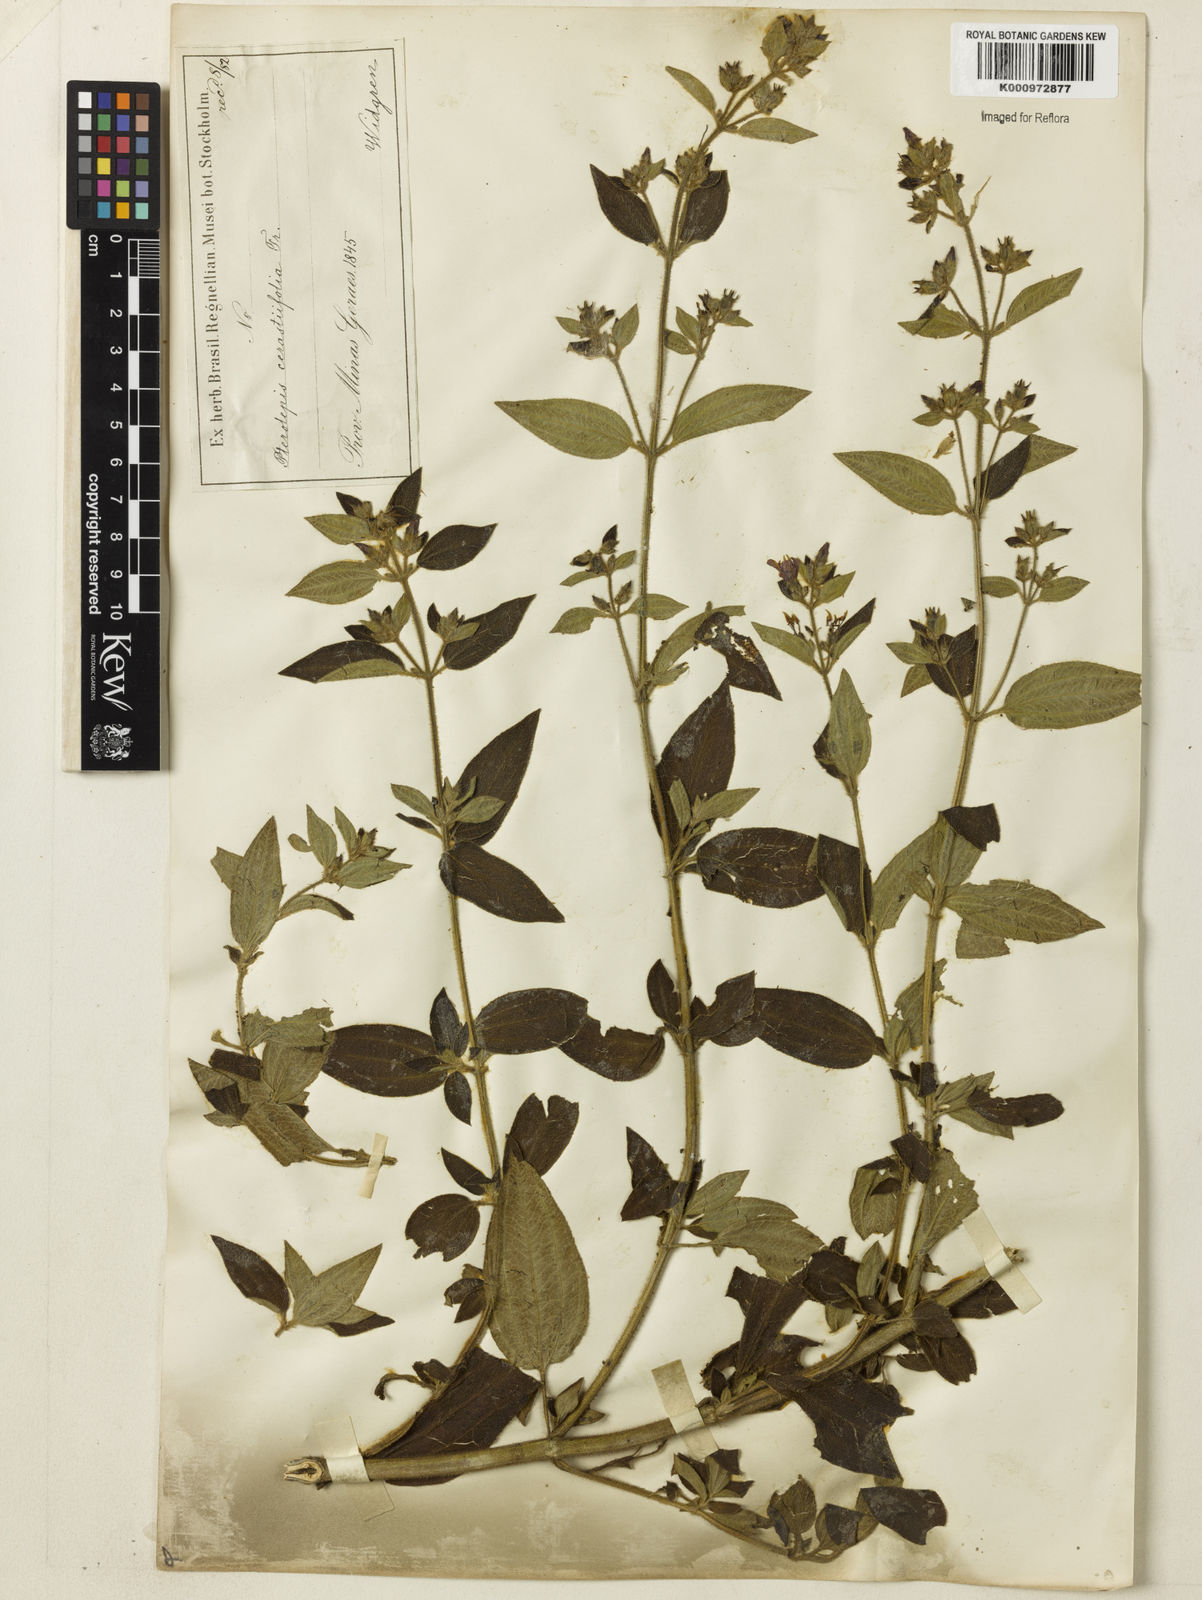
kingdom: Plantae
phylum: Tracheophyta
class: Magnoliopsida
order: Myrtales
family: Melastomataceae
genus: Chaetogastra
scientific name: Chaetogastra herbacea
